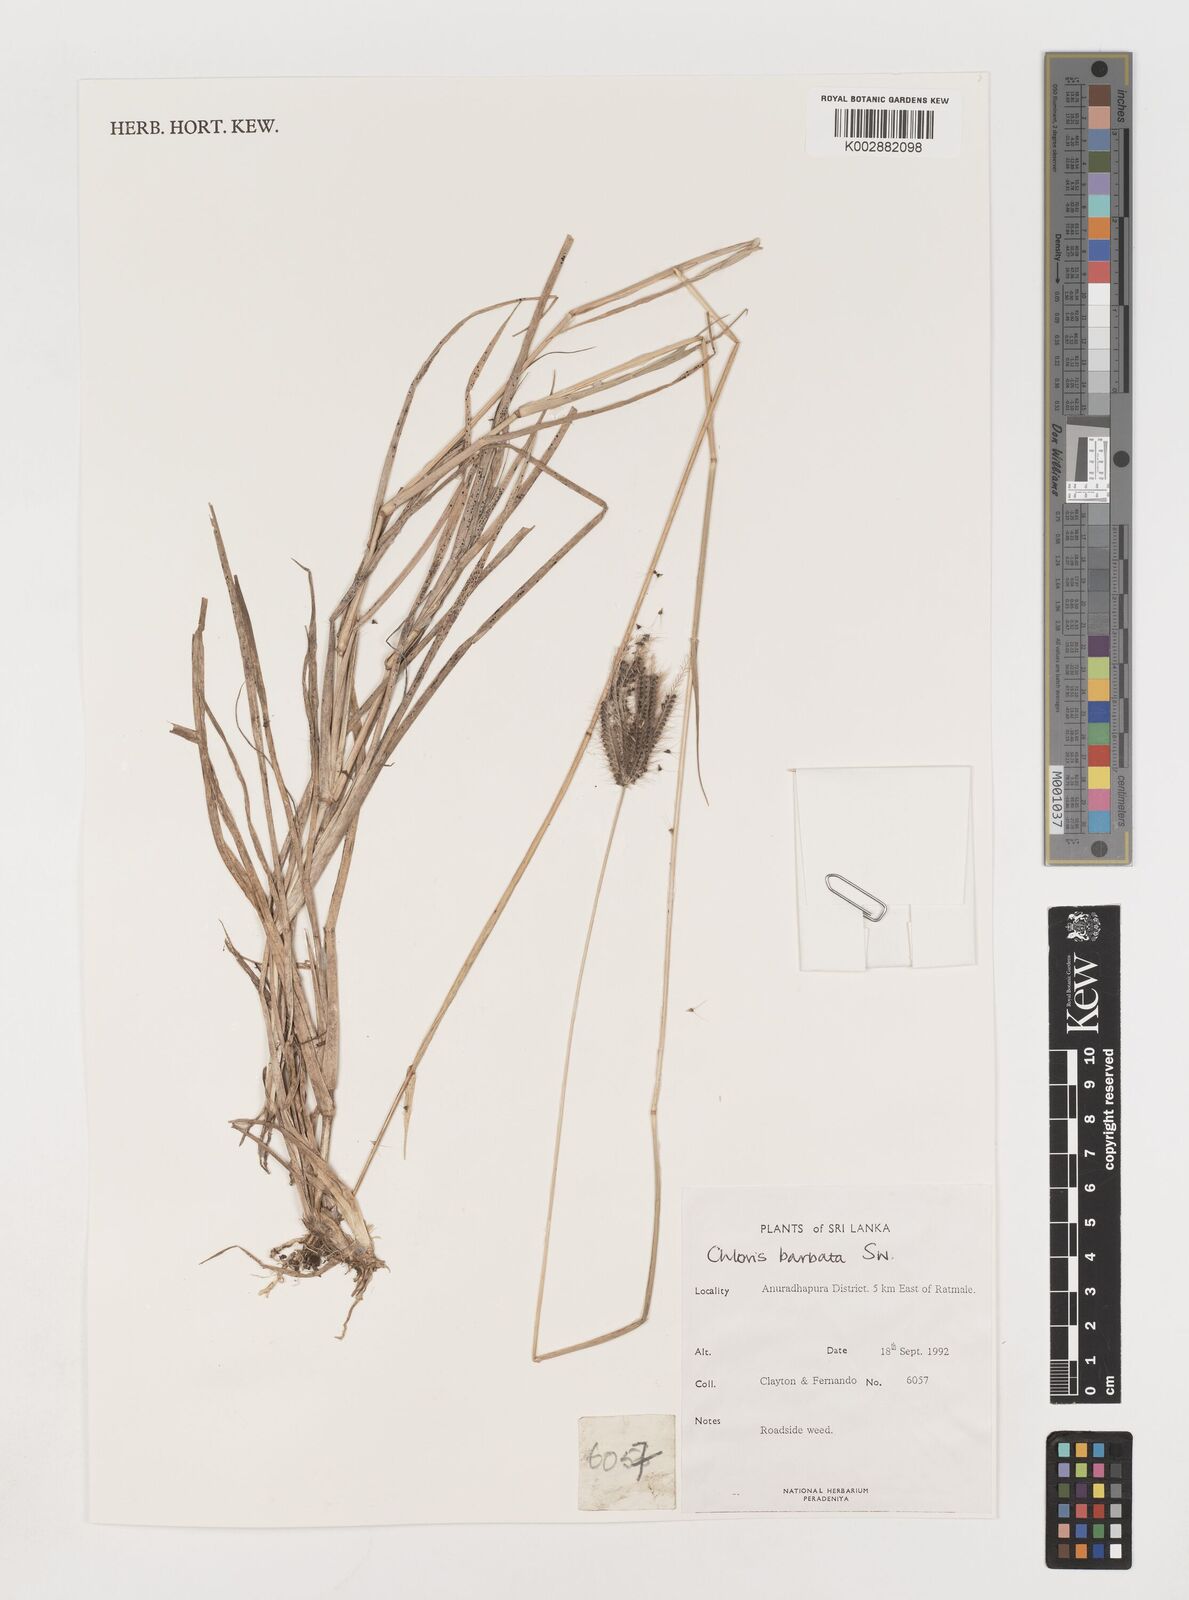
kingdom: Plantae
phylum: Tracheophyta
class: Liliopsida
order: Poales
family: Poaceae
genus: Chloris
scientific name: Chloris barbata
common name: Swollen fingergrass
